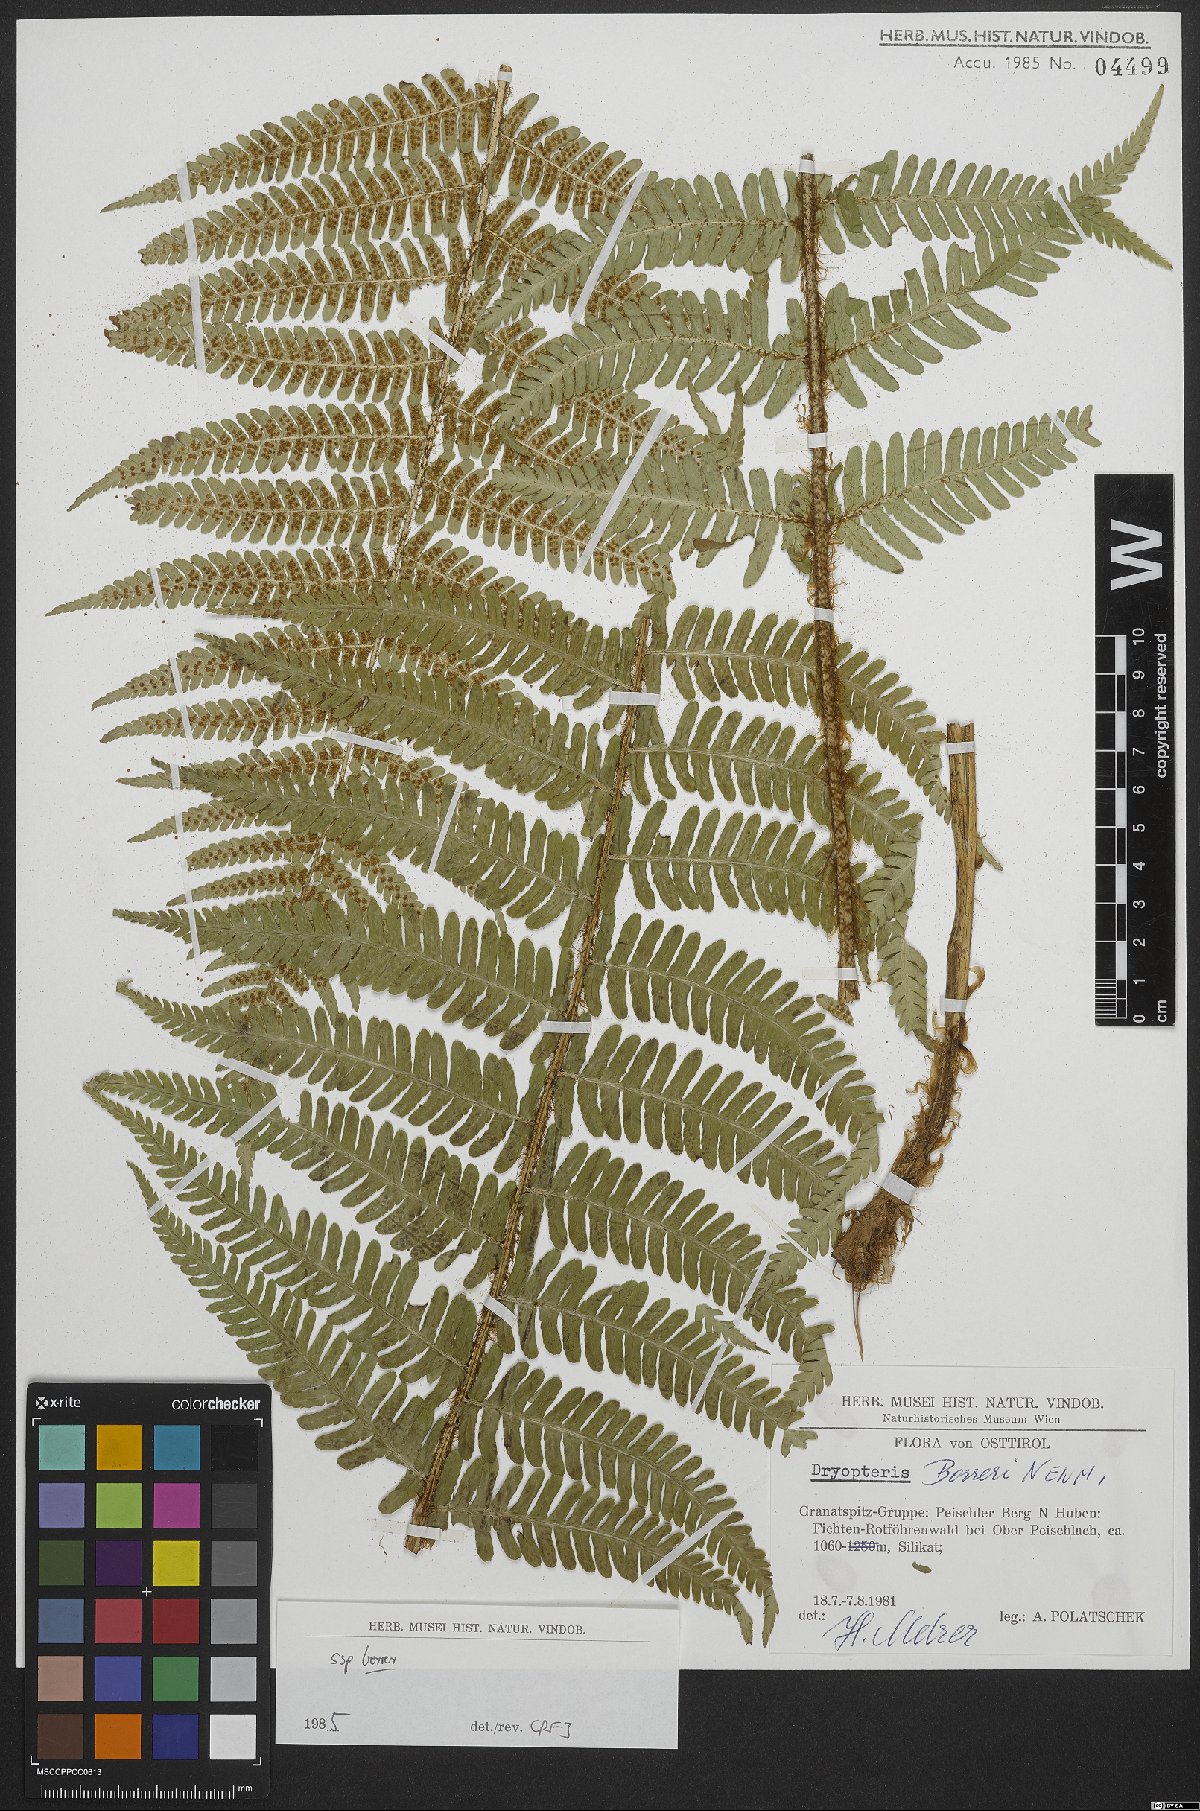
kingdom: Plantae
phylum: Tracheophyta
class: Polypodiopsida
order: Polypodiales
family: Dryopteridaceae
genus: Dryopteris
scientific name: Dryopteris borreri
